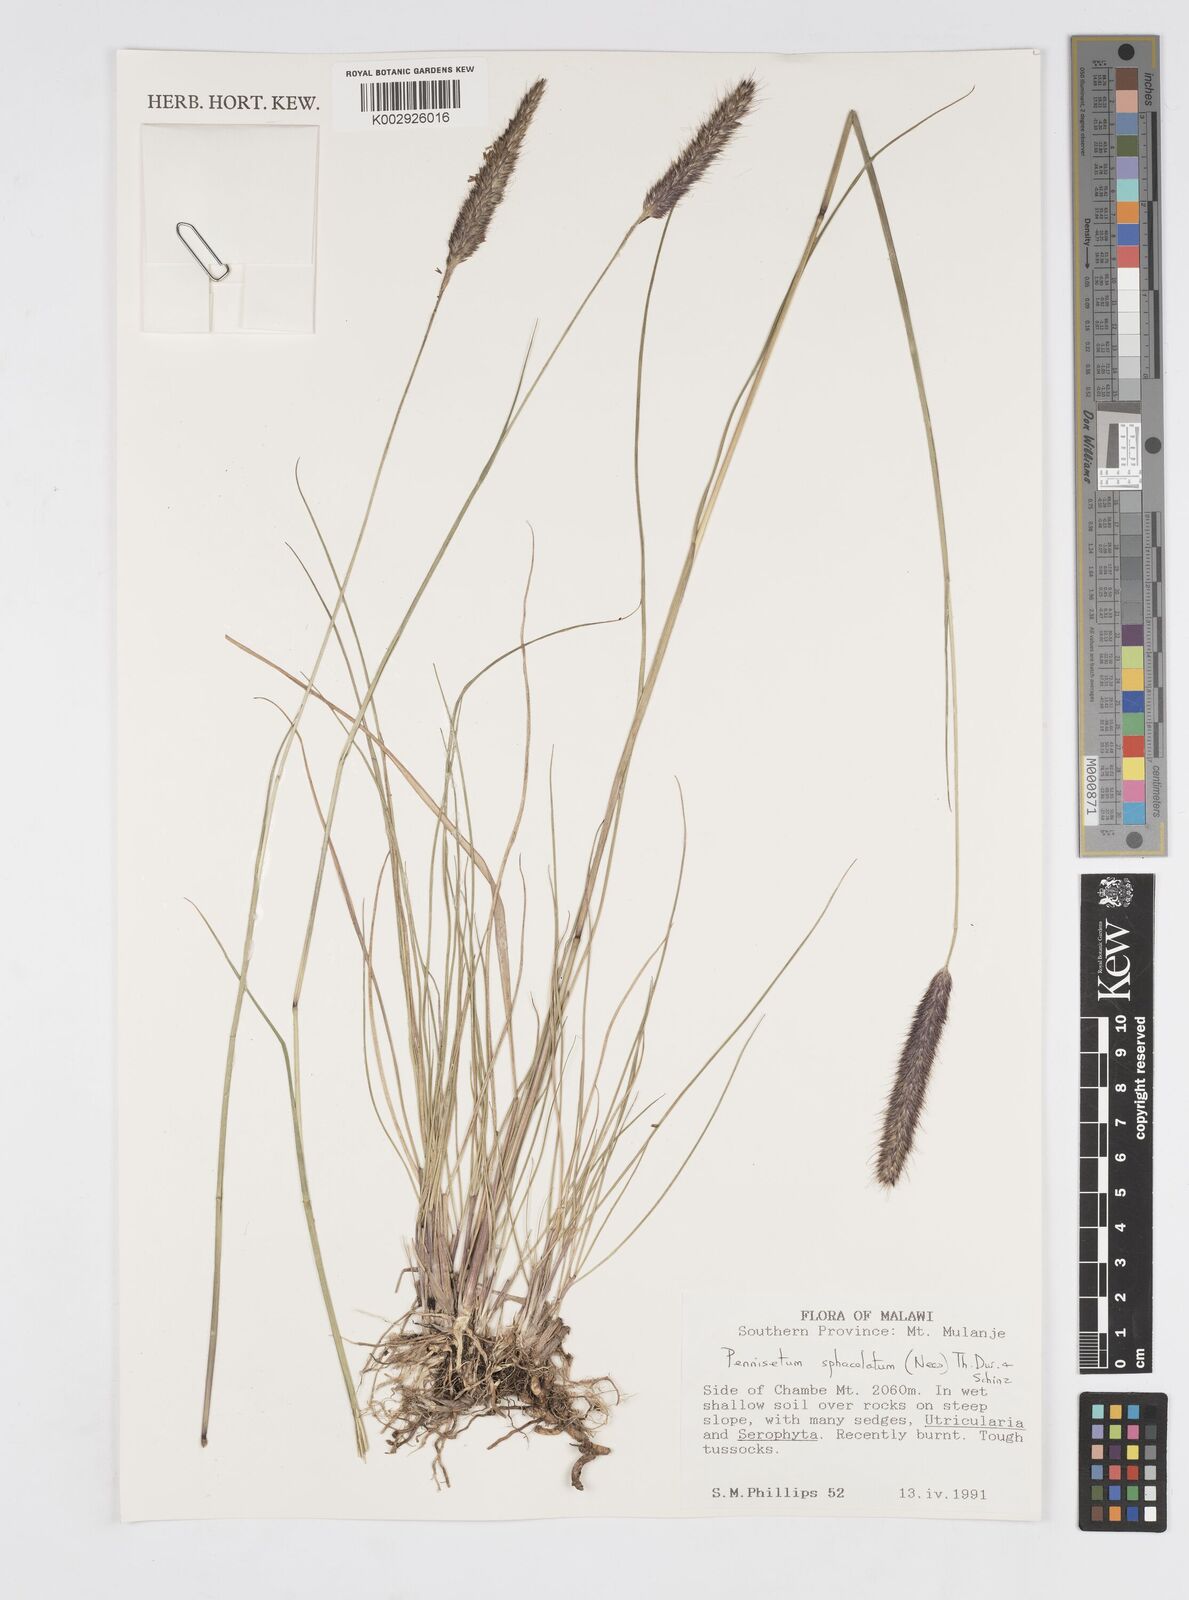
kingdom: Plantae
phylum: Tracheophyta
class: Liliopsida
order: Poales
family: Poaceae
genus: Cenchrus
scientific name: Cenchrus sphacelatus
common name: Bulgras
